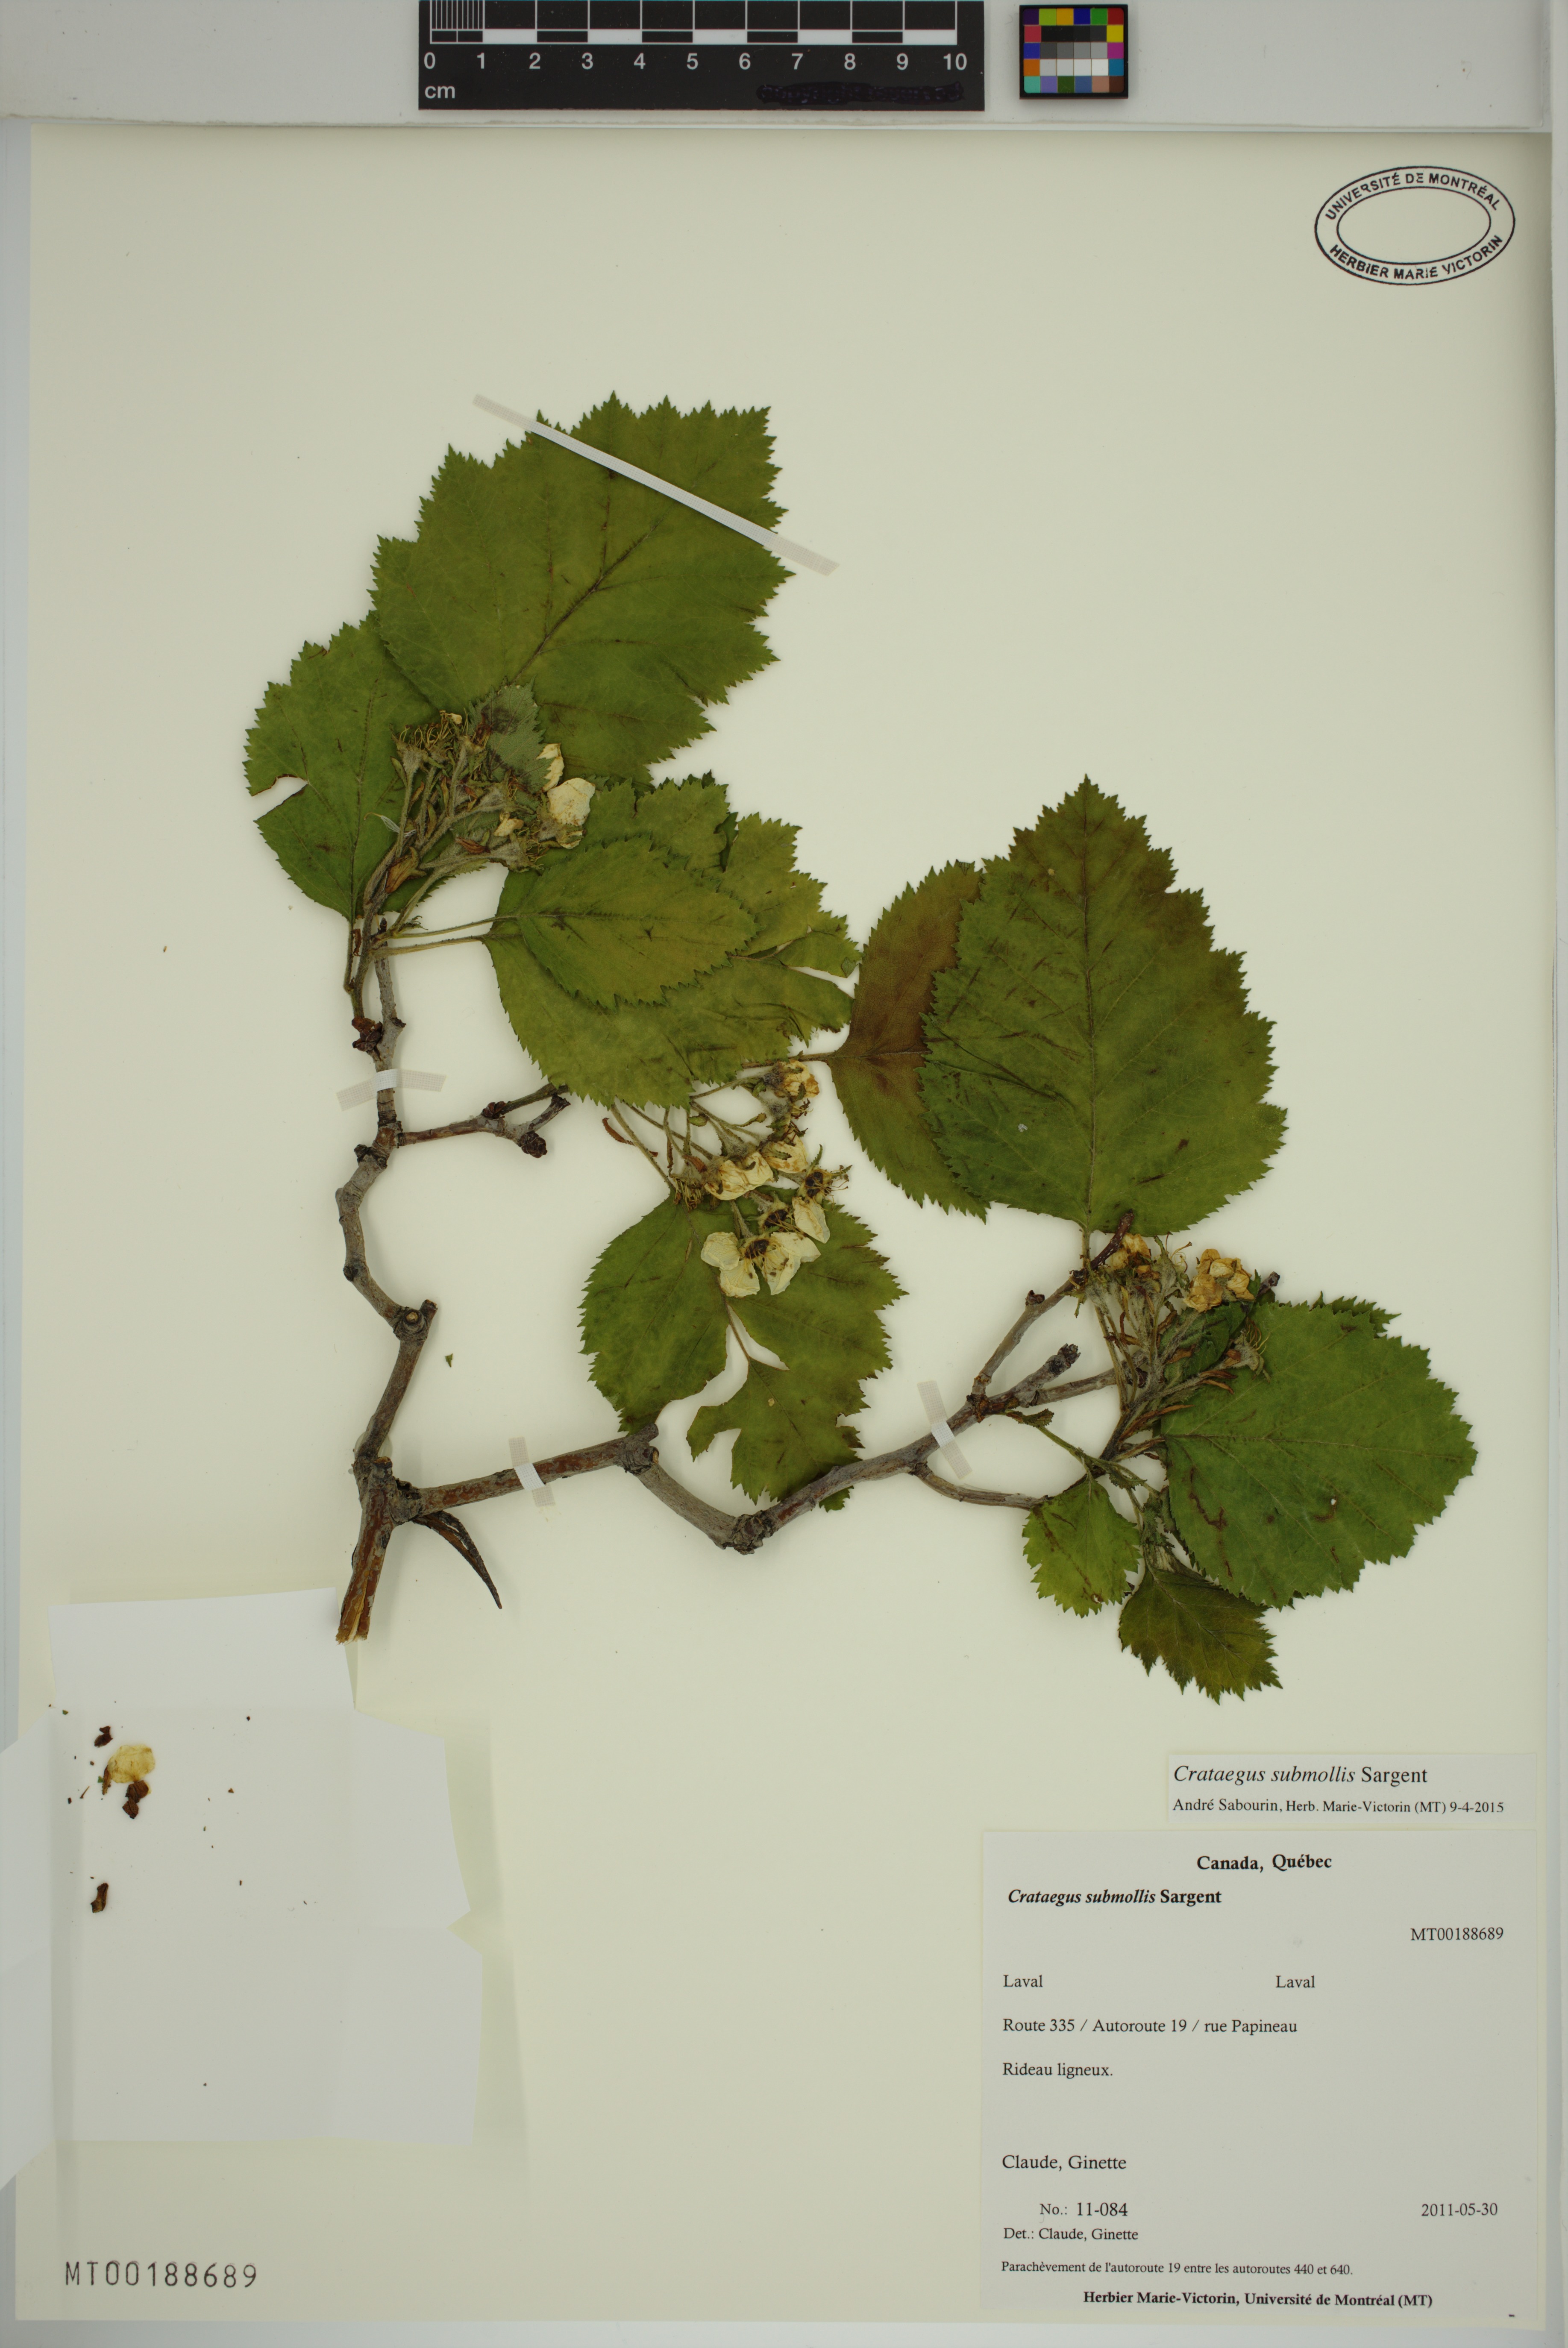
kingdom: Plantae
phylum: Tracheophyta
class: Magnoliopsida
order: Rosales
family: Rosaceae
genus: Crataegus
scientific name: Crataegus submollis
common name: Hairy cockspurthorn
